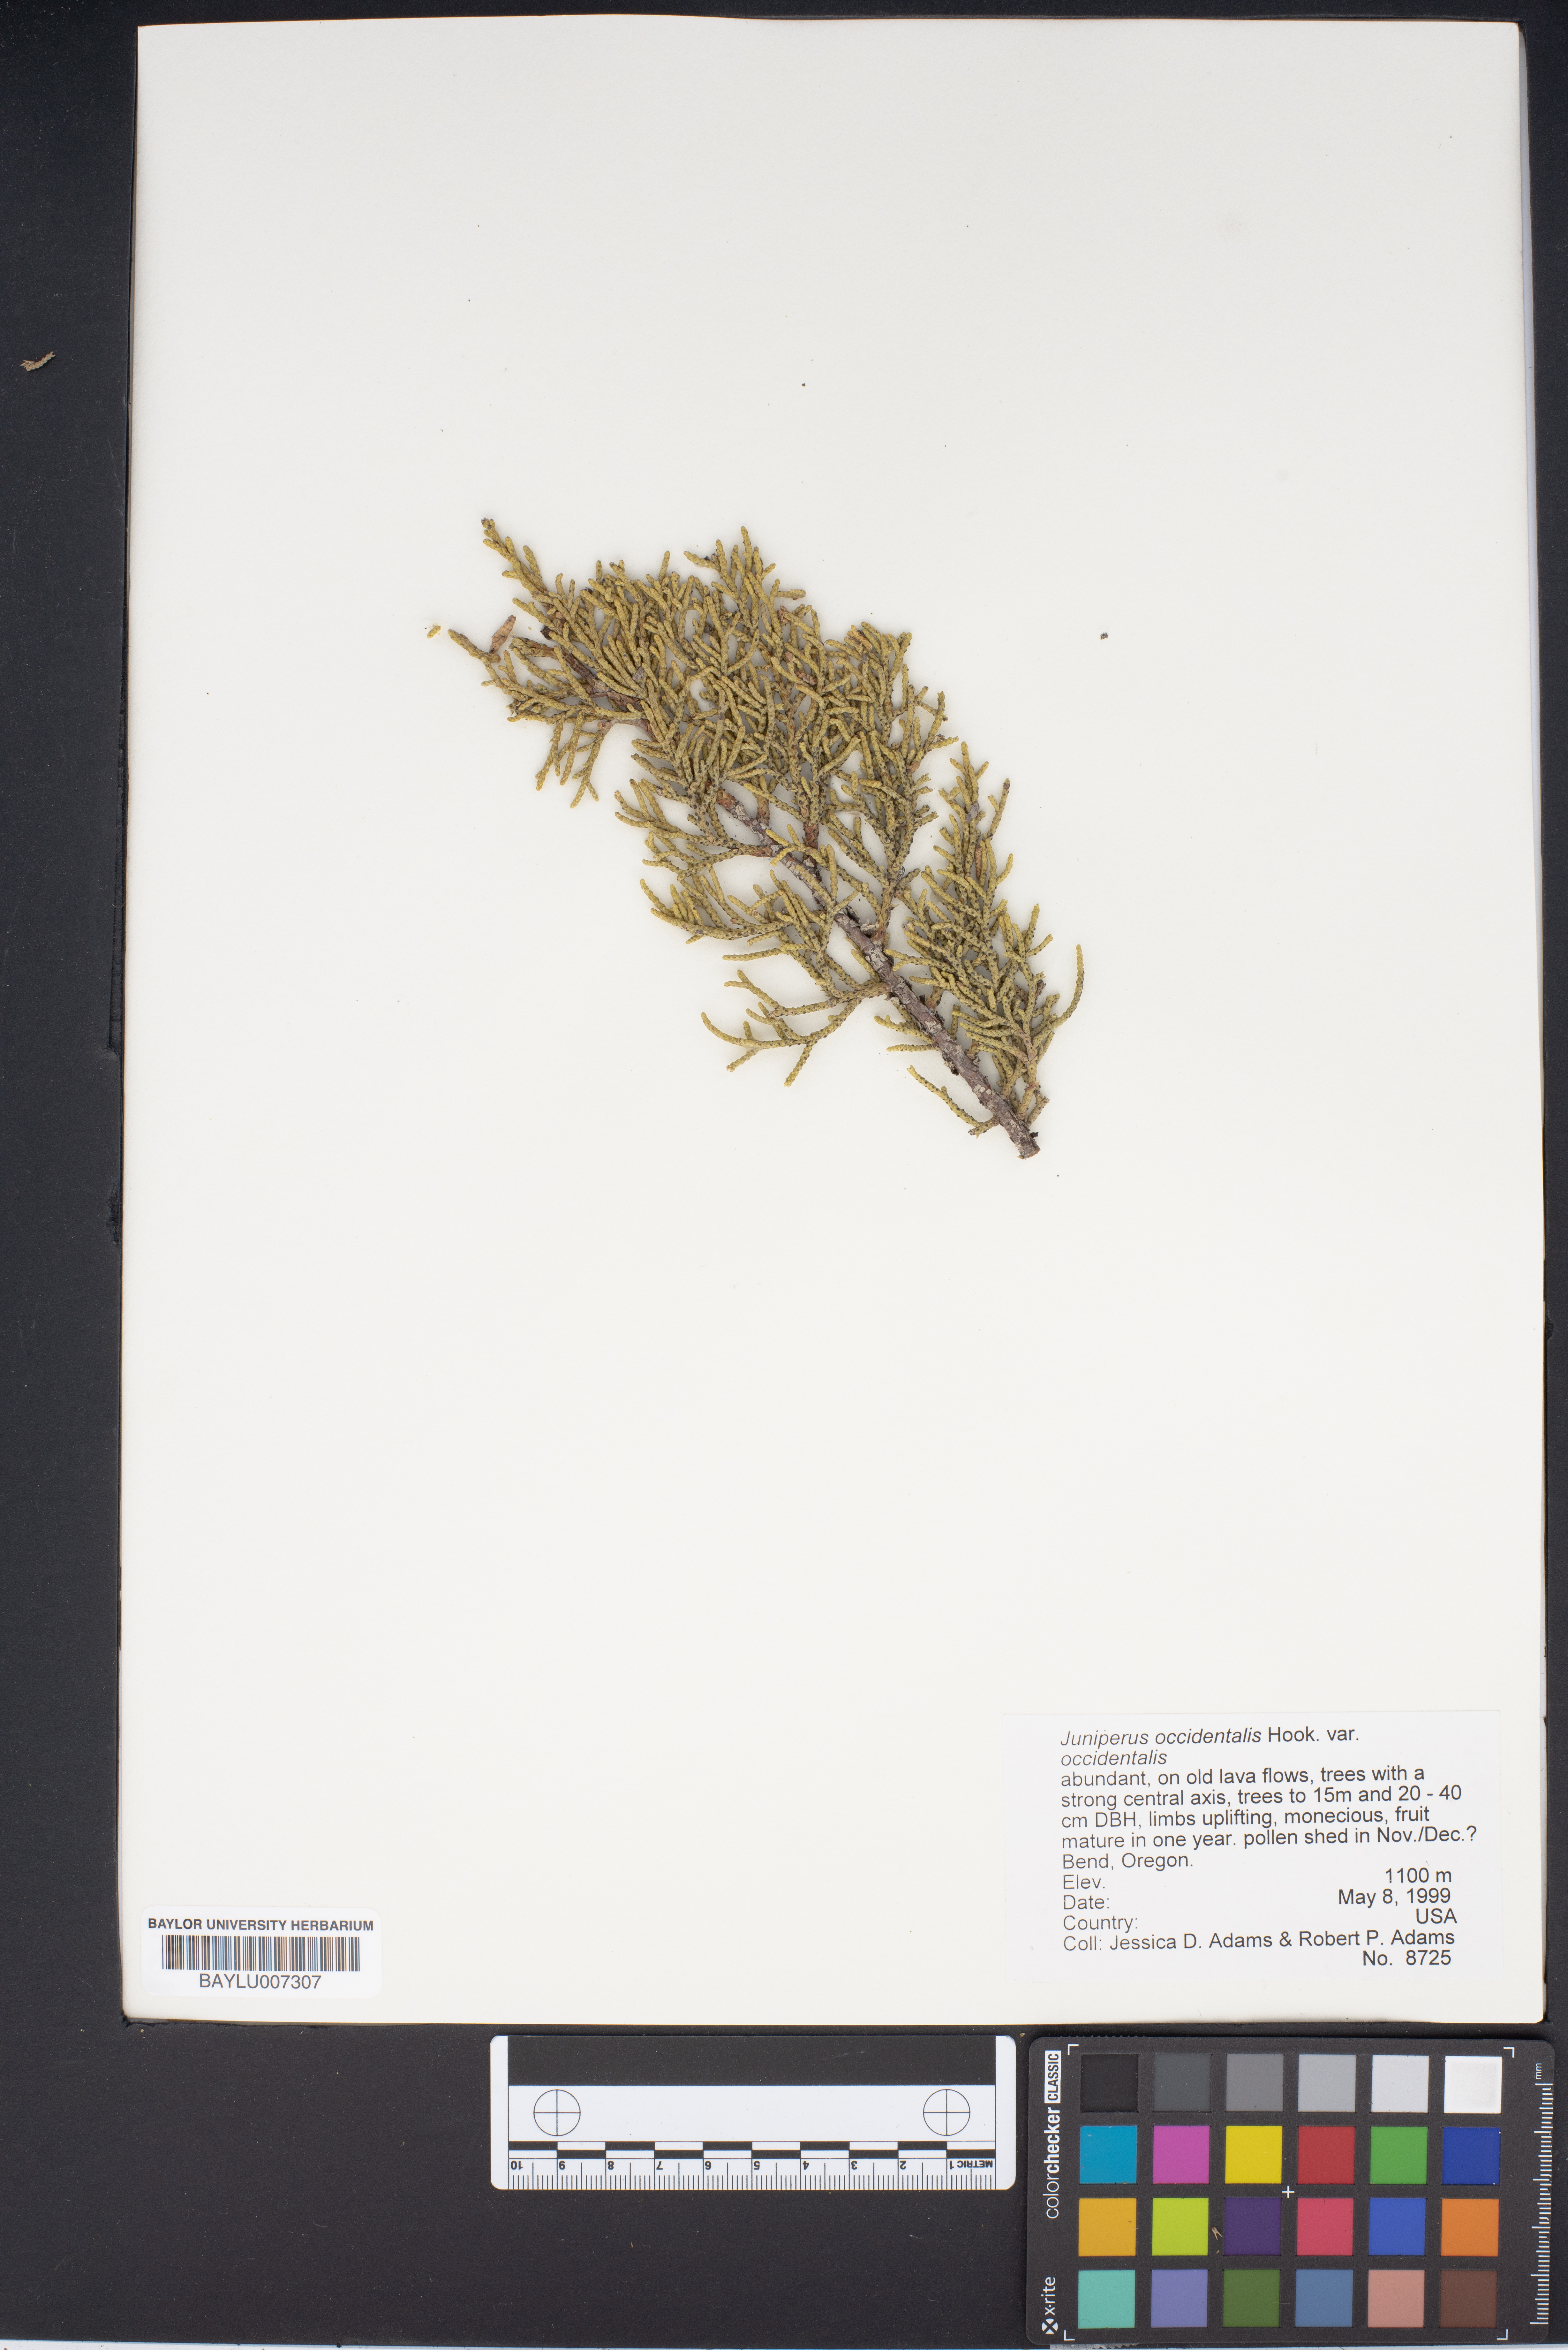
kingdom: Plantae
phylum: Tracheophyta
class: Pinopsida
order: Pinales
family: Cupressaceae
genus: Juniperus
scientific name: Juniperus occidentalis
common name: Western juniper
